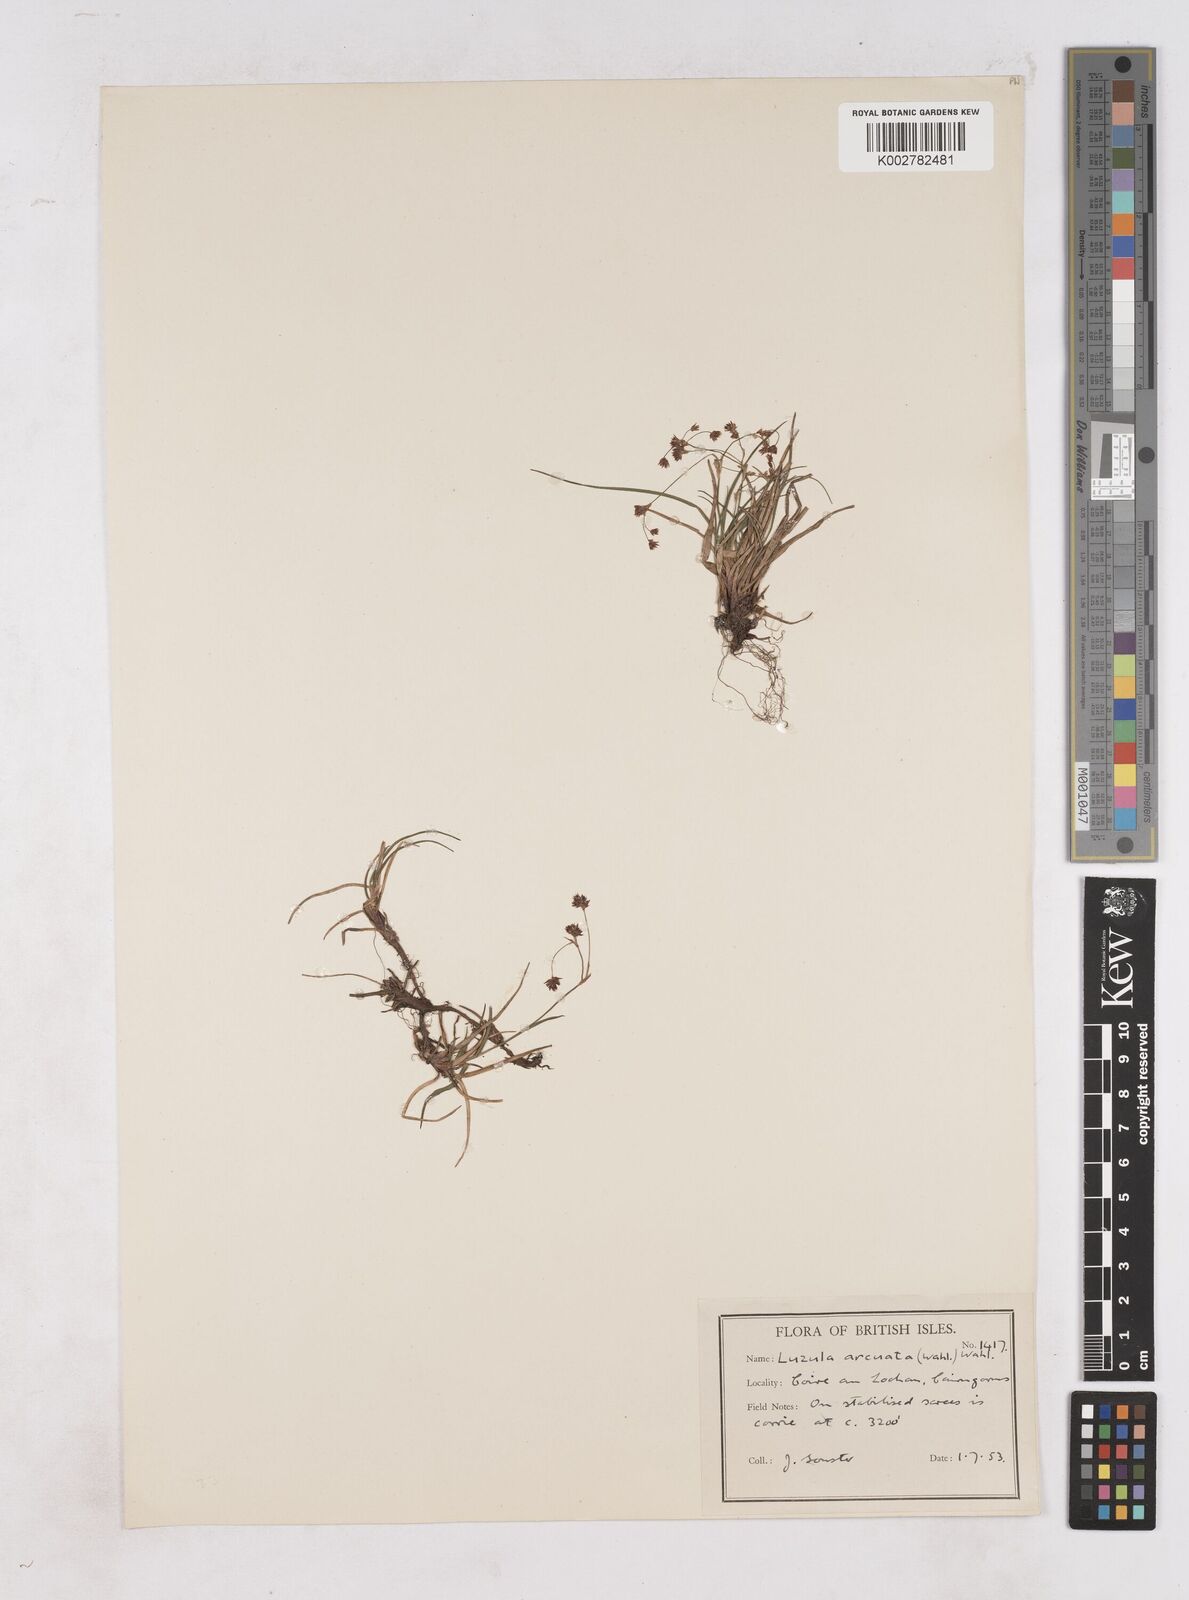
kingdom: Plantae
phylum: Tracheophyta
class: Liliopsida
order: Poales
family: Juncaceae
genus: Luzula
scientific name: Luzula arcuata
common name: Curved wood-rush
